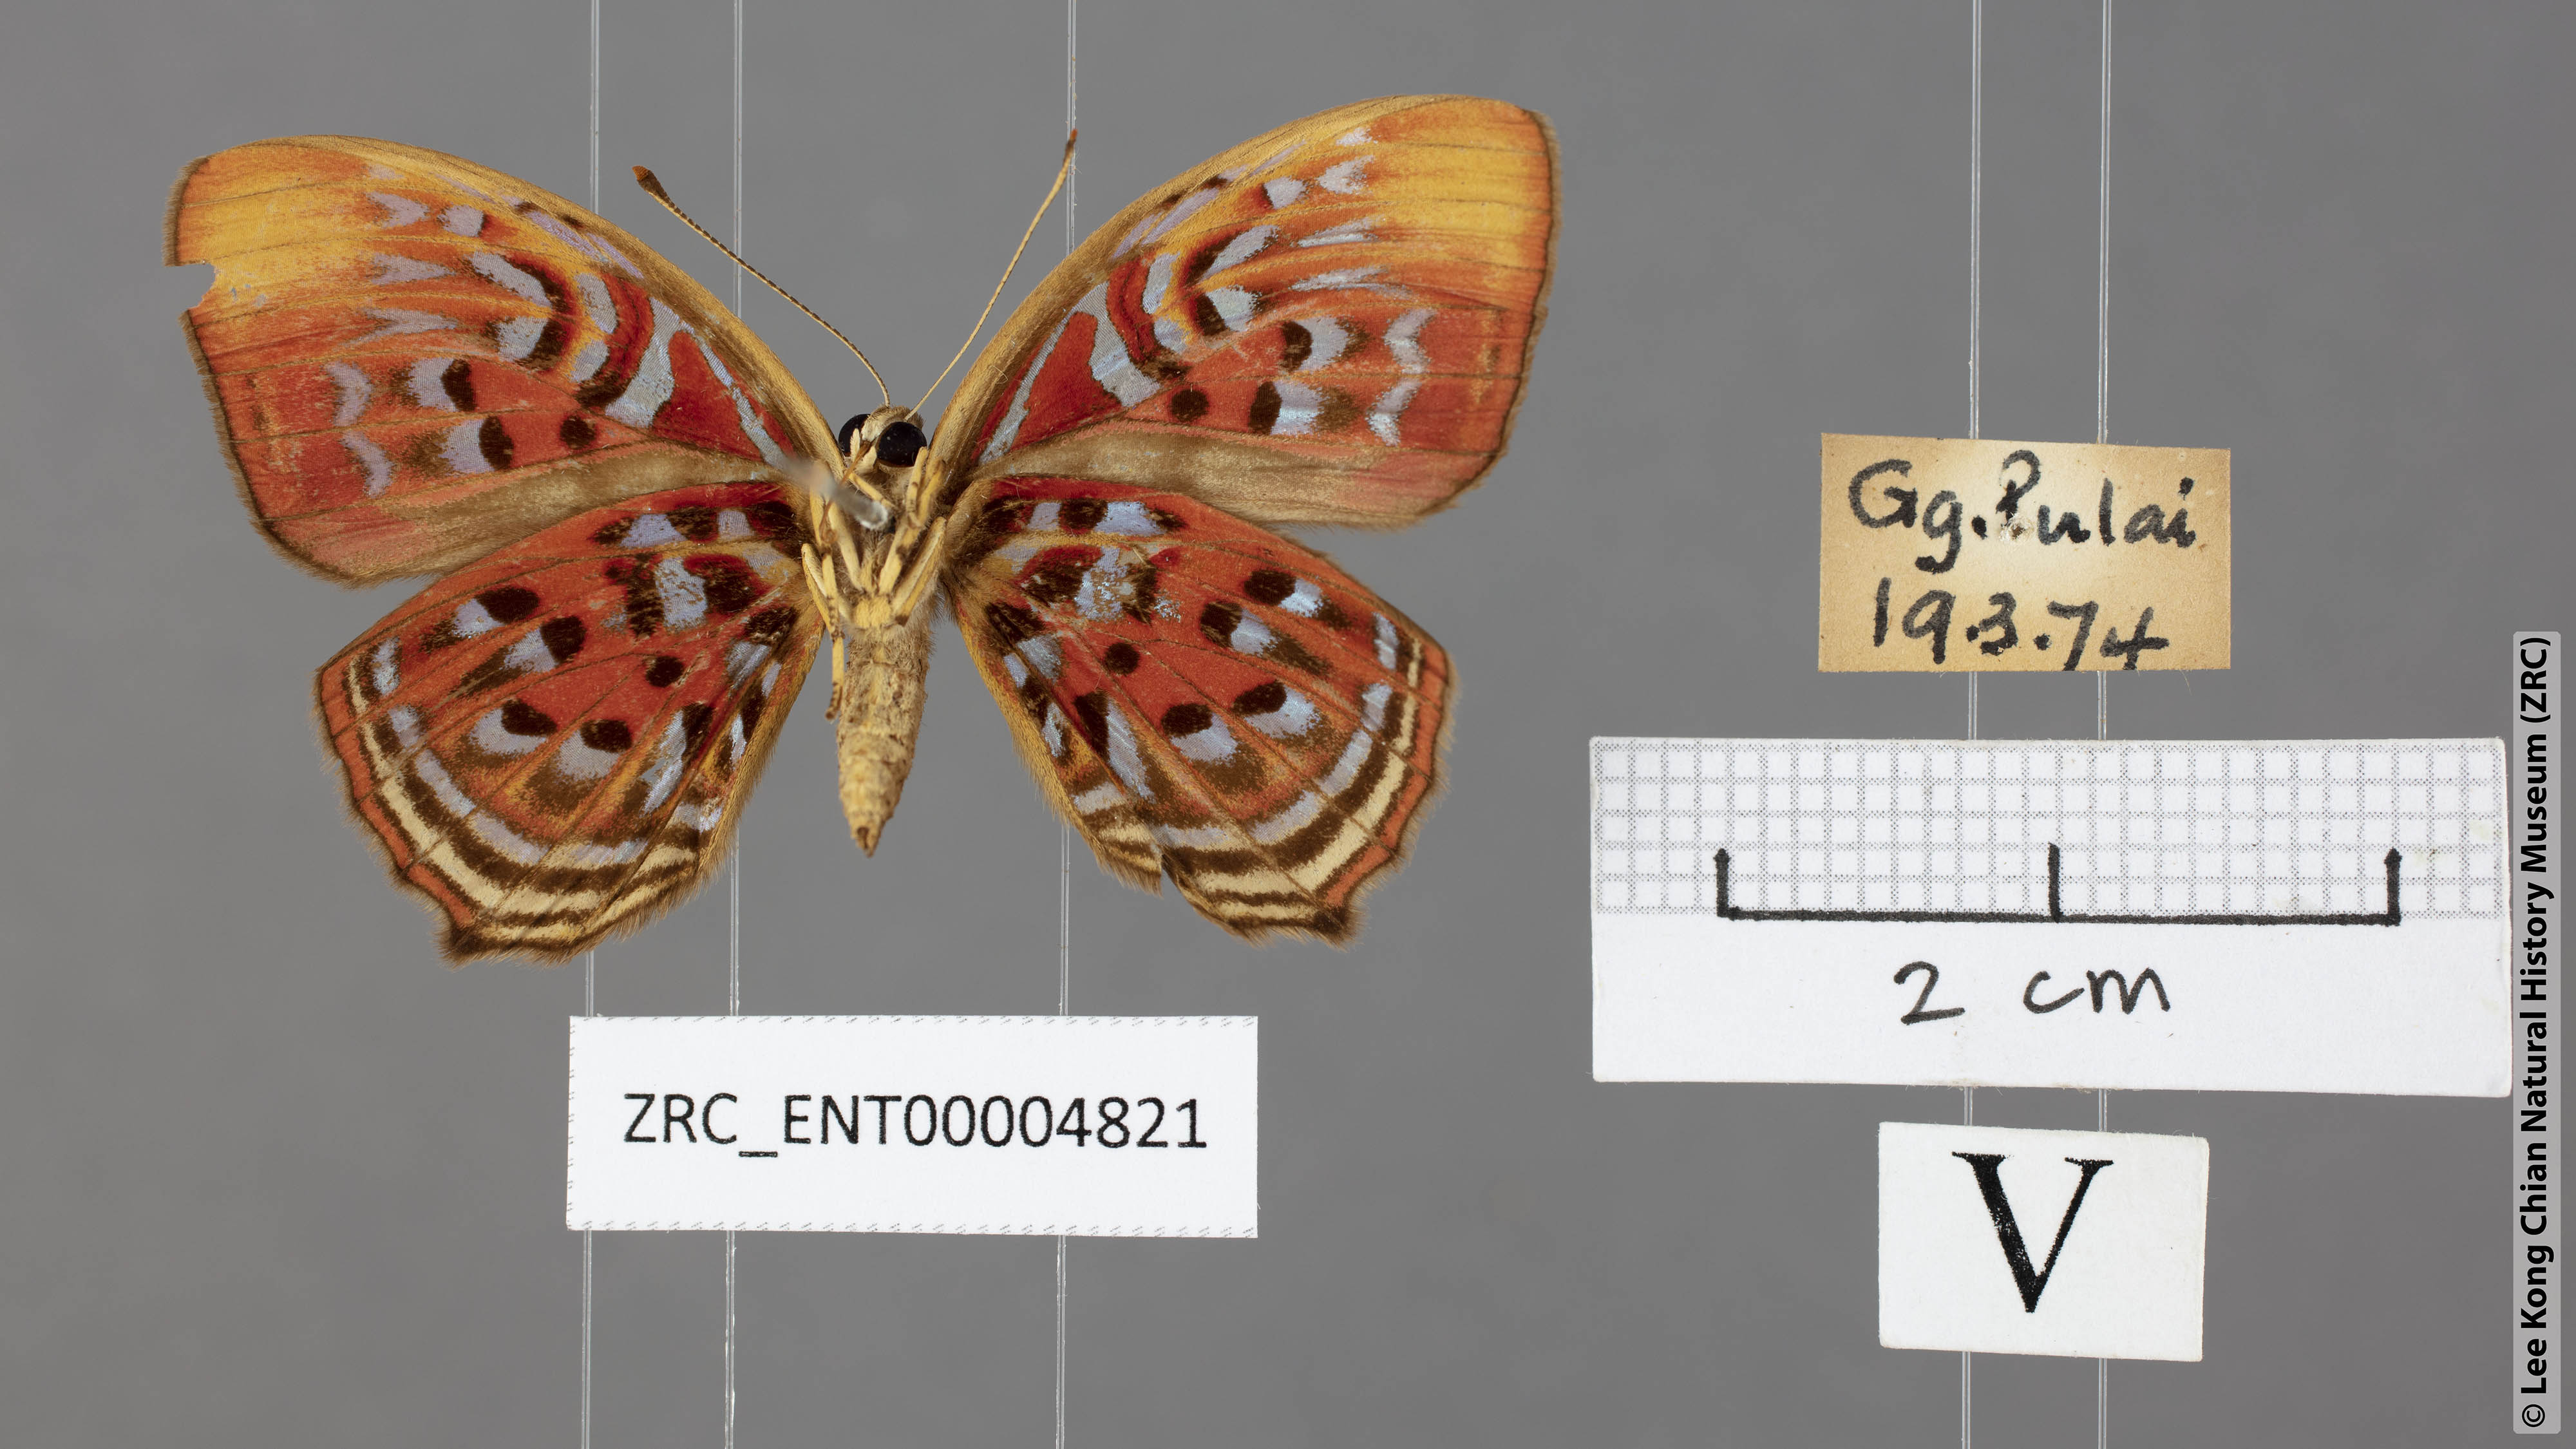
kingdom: Animalia
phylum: Arthropoda
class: Insecta
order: Lepidoptera
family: Lycaenidae
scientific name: Lycaenidae
